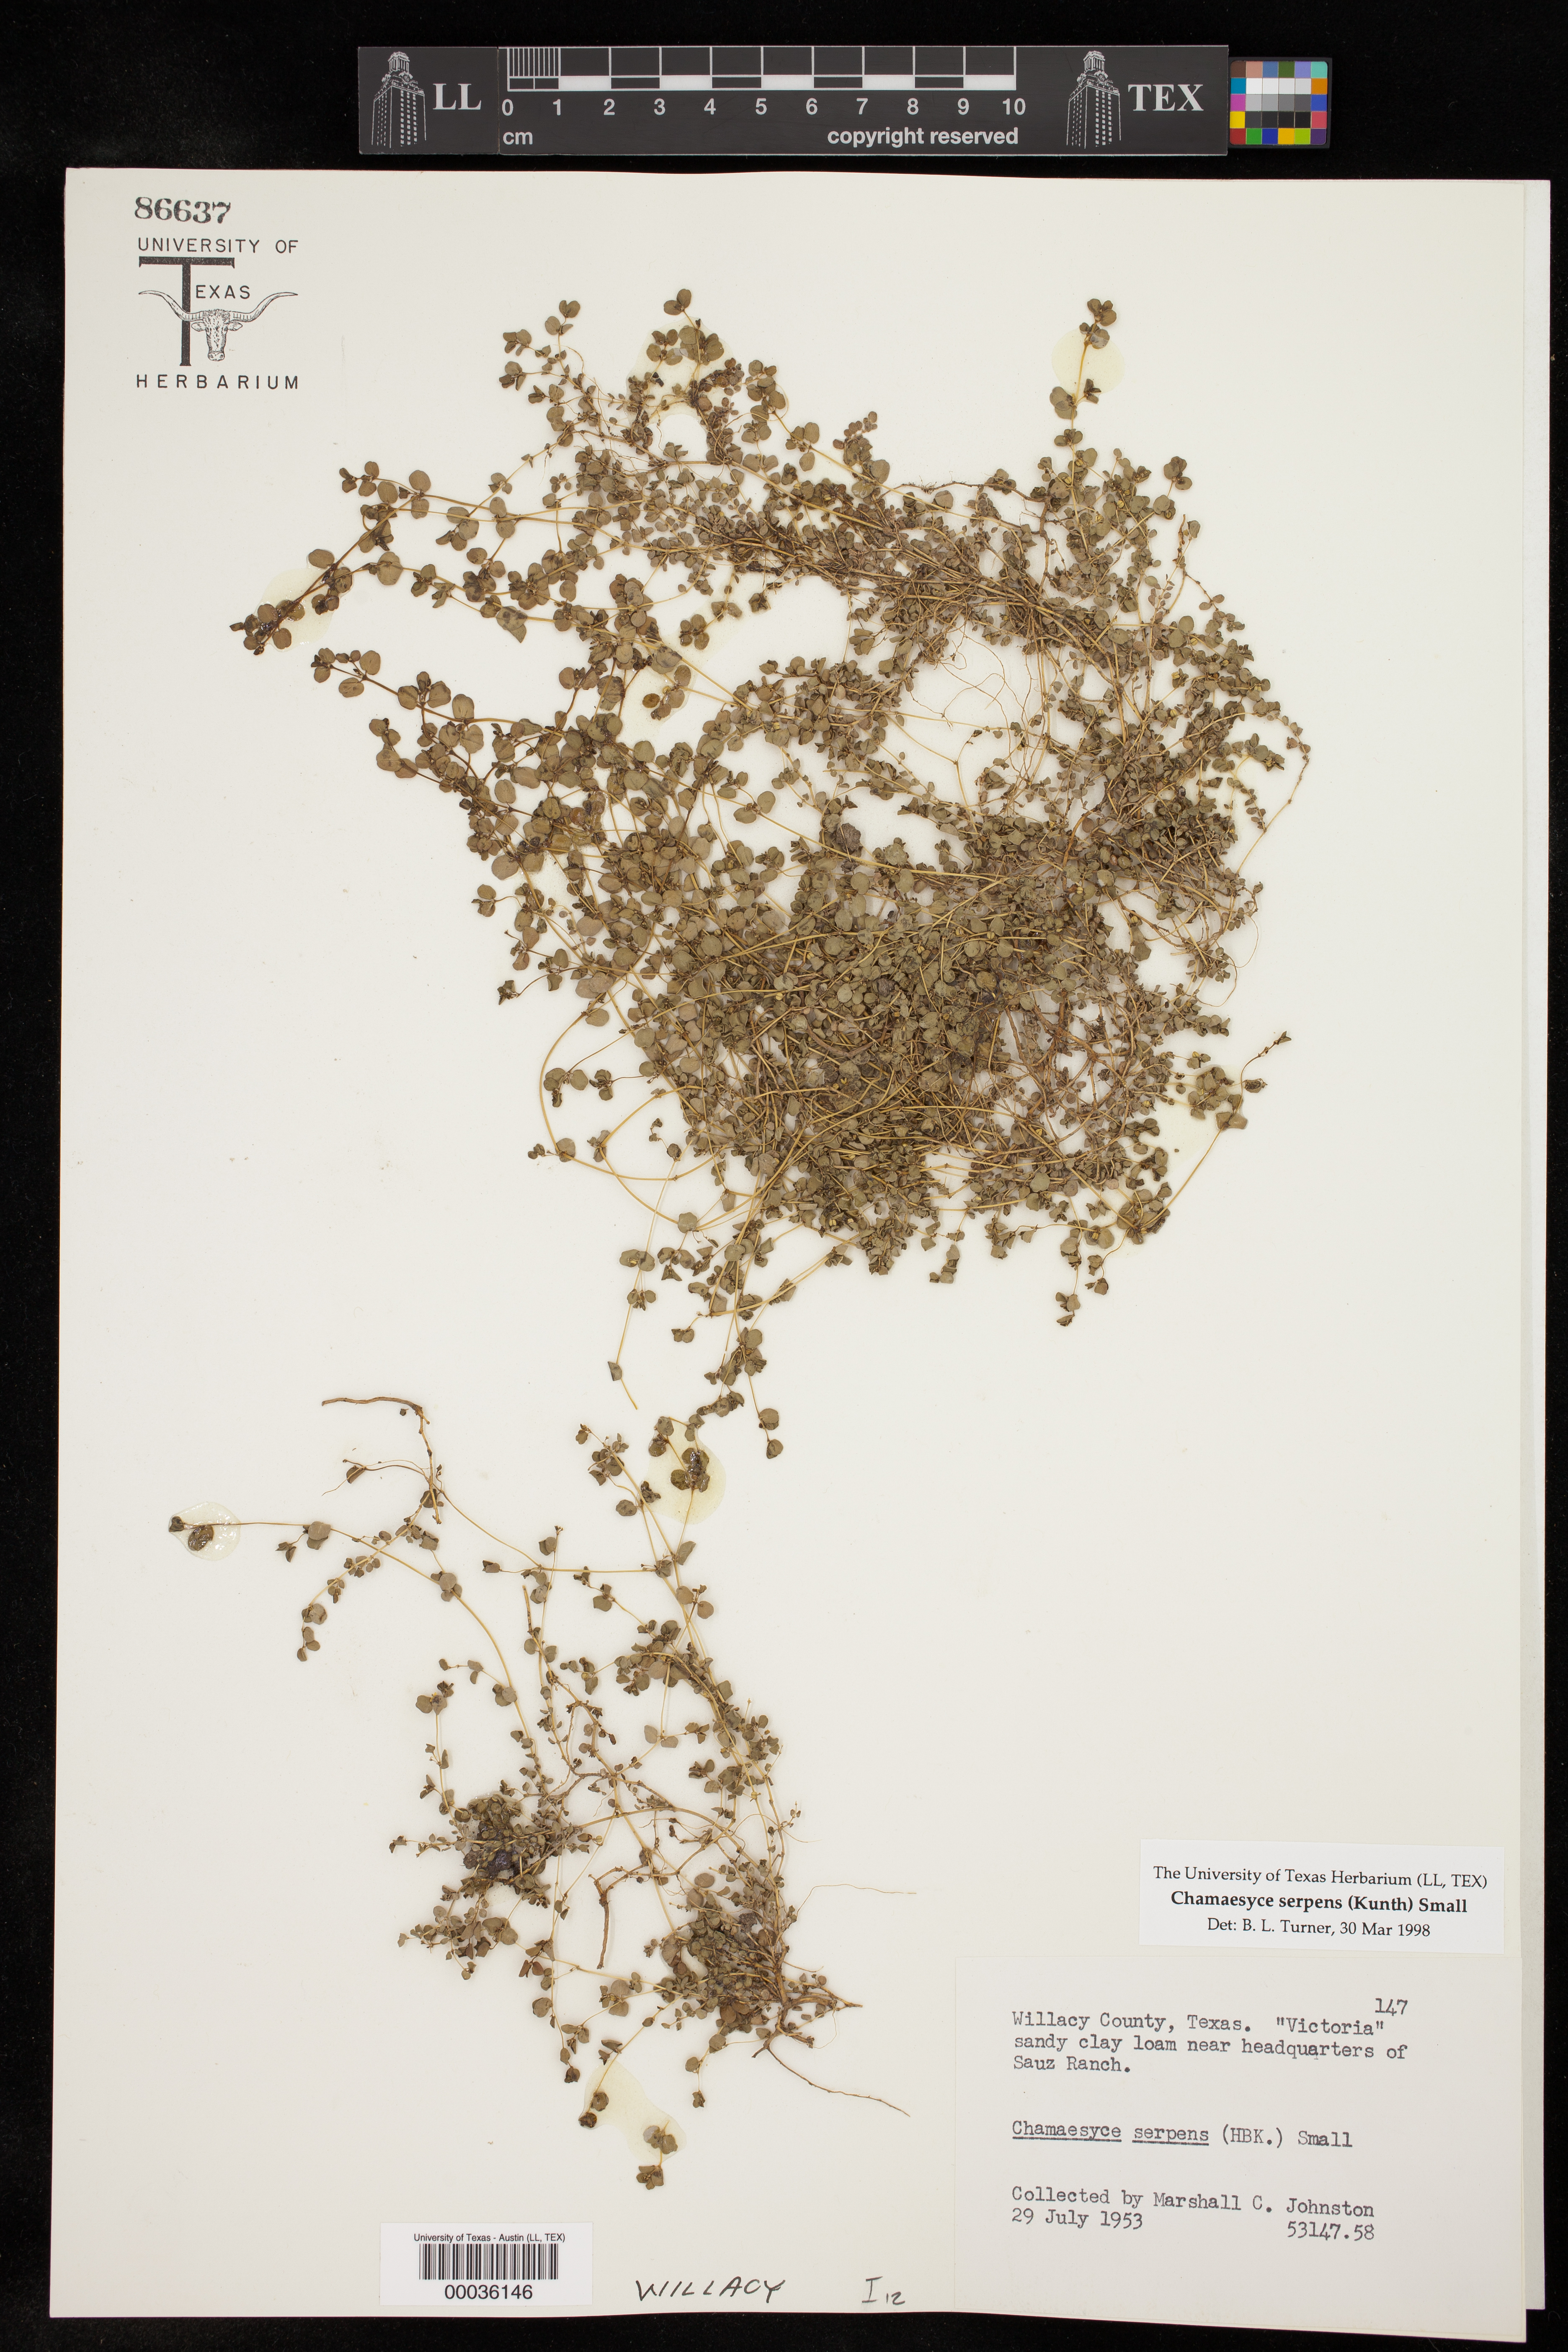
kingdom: Plantae
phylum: Tracheophyta
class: Magnoliopsida
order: Malpighiales
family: Euphorbiaceae
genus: Euphorbia
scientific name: Euphorbia serpens
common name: Matted sandmat
